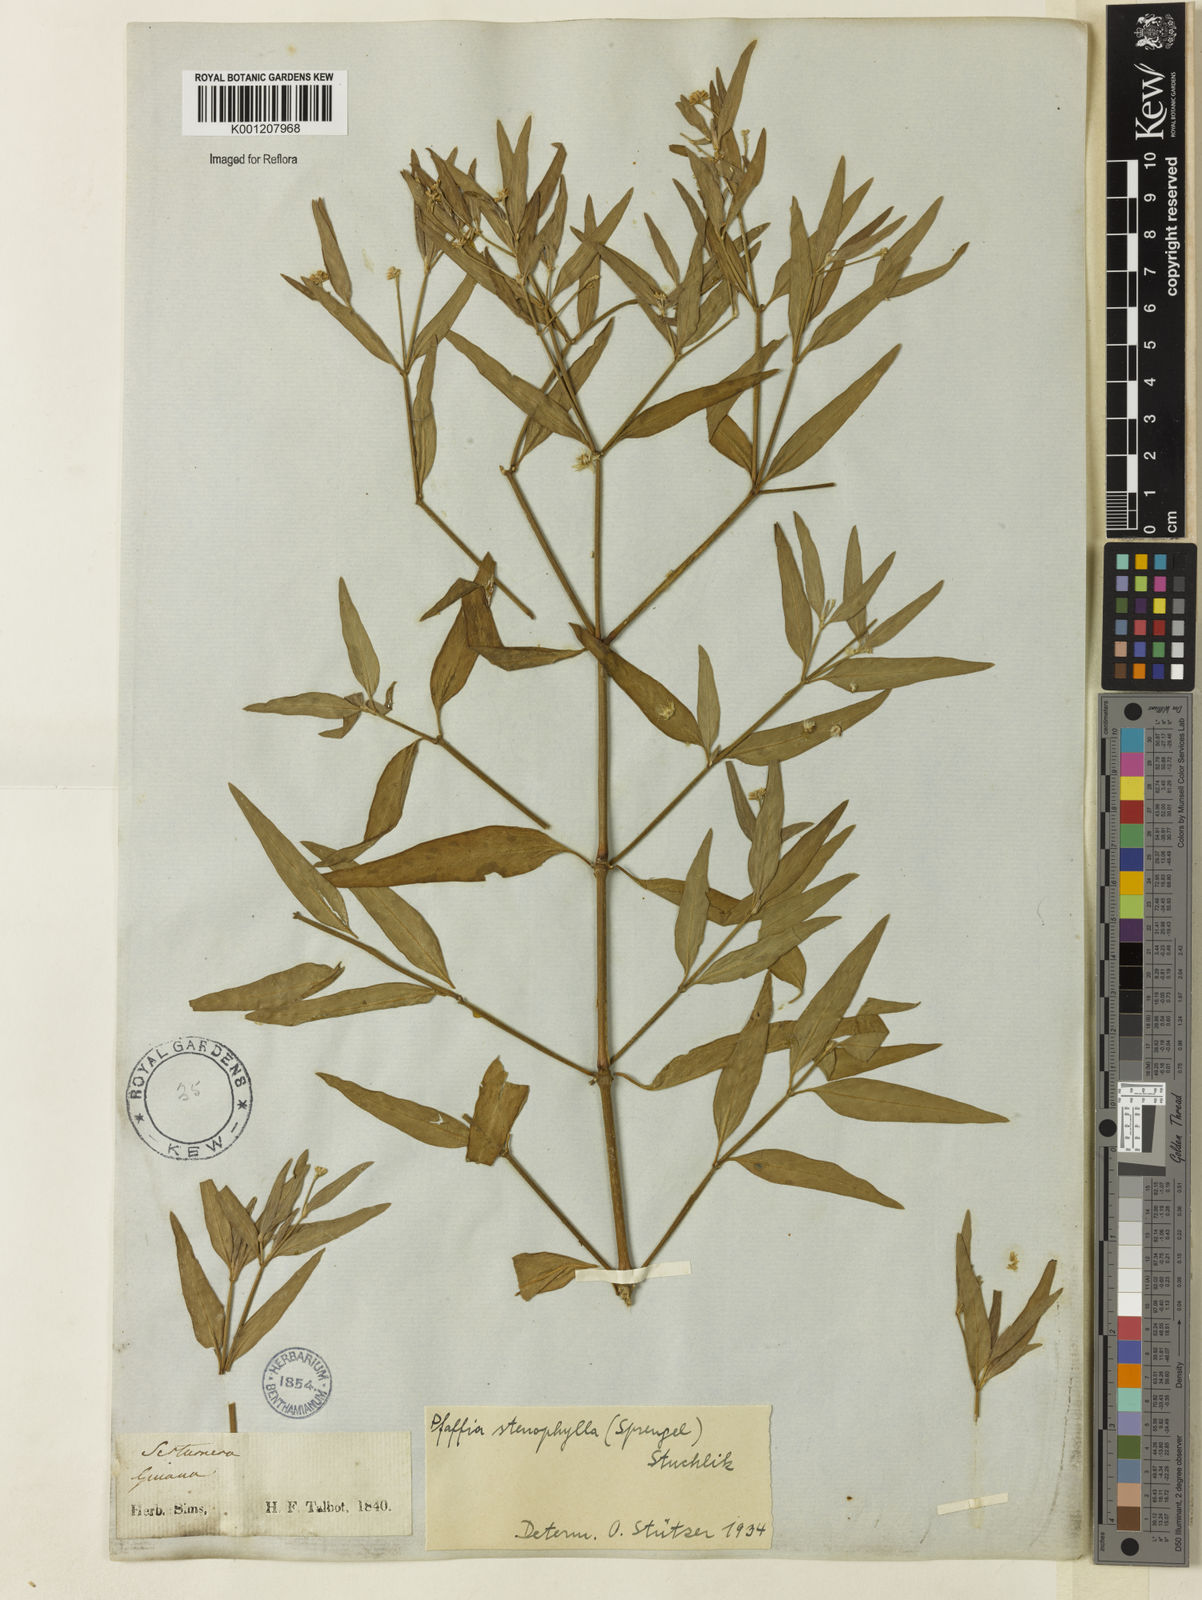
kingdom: Plantae
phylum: Tracheophyta
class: Magnoliopsida
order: Caryophyllales
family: Amaranthaceae
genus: Pfaffia
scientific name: Pfaffia
